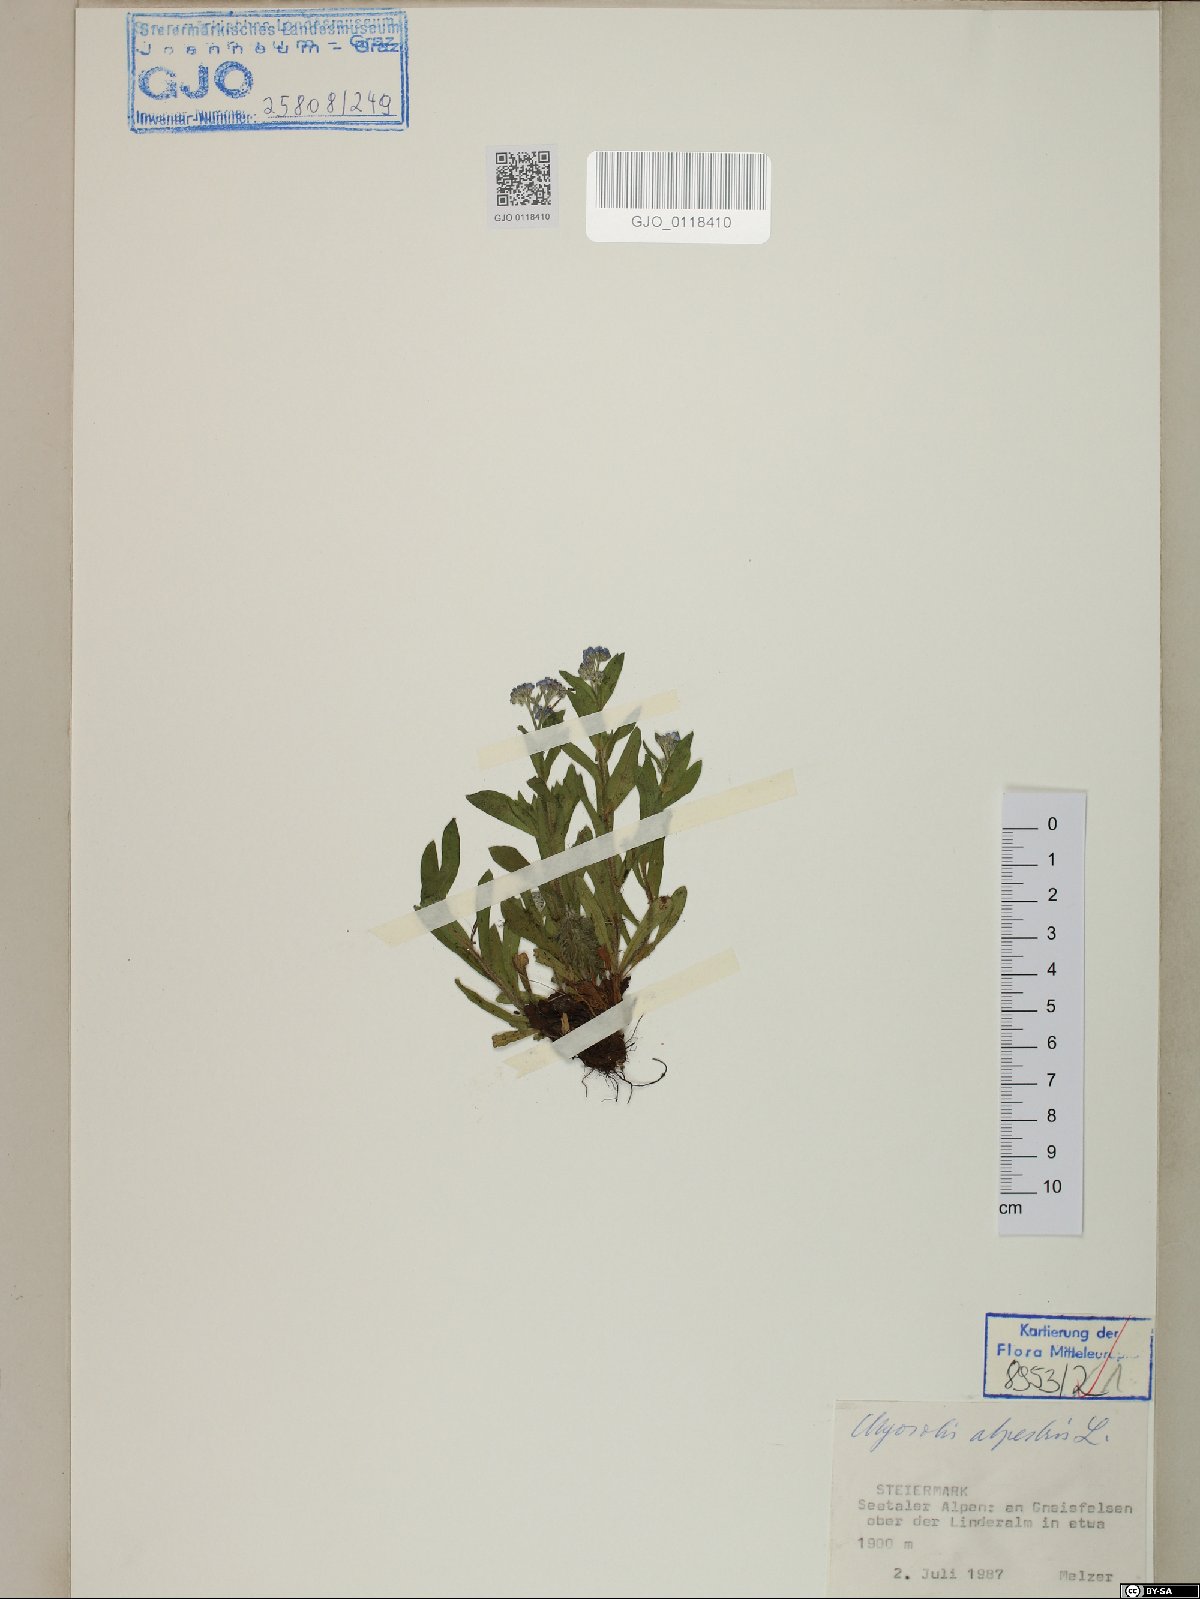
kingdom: Plantae
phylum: Tracheophyta
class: Magnoliopsida
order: Boraginales
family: Boraginaceae
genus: Myosotis
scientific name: Myosotis alpestris
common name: Alpine forget-me-not
